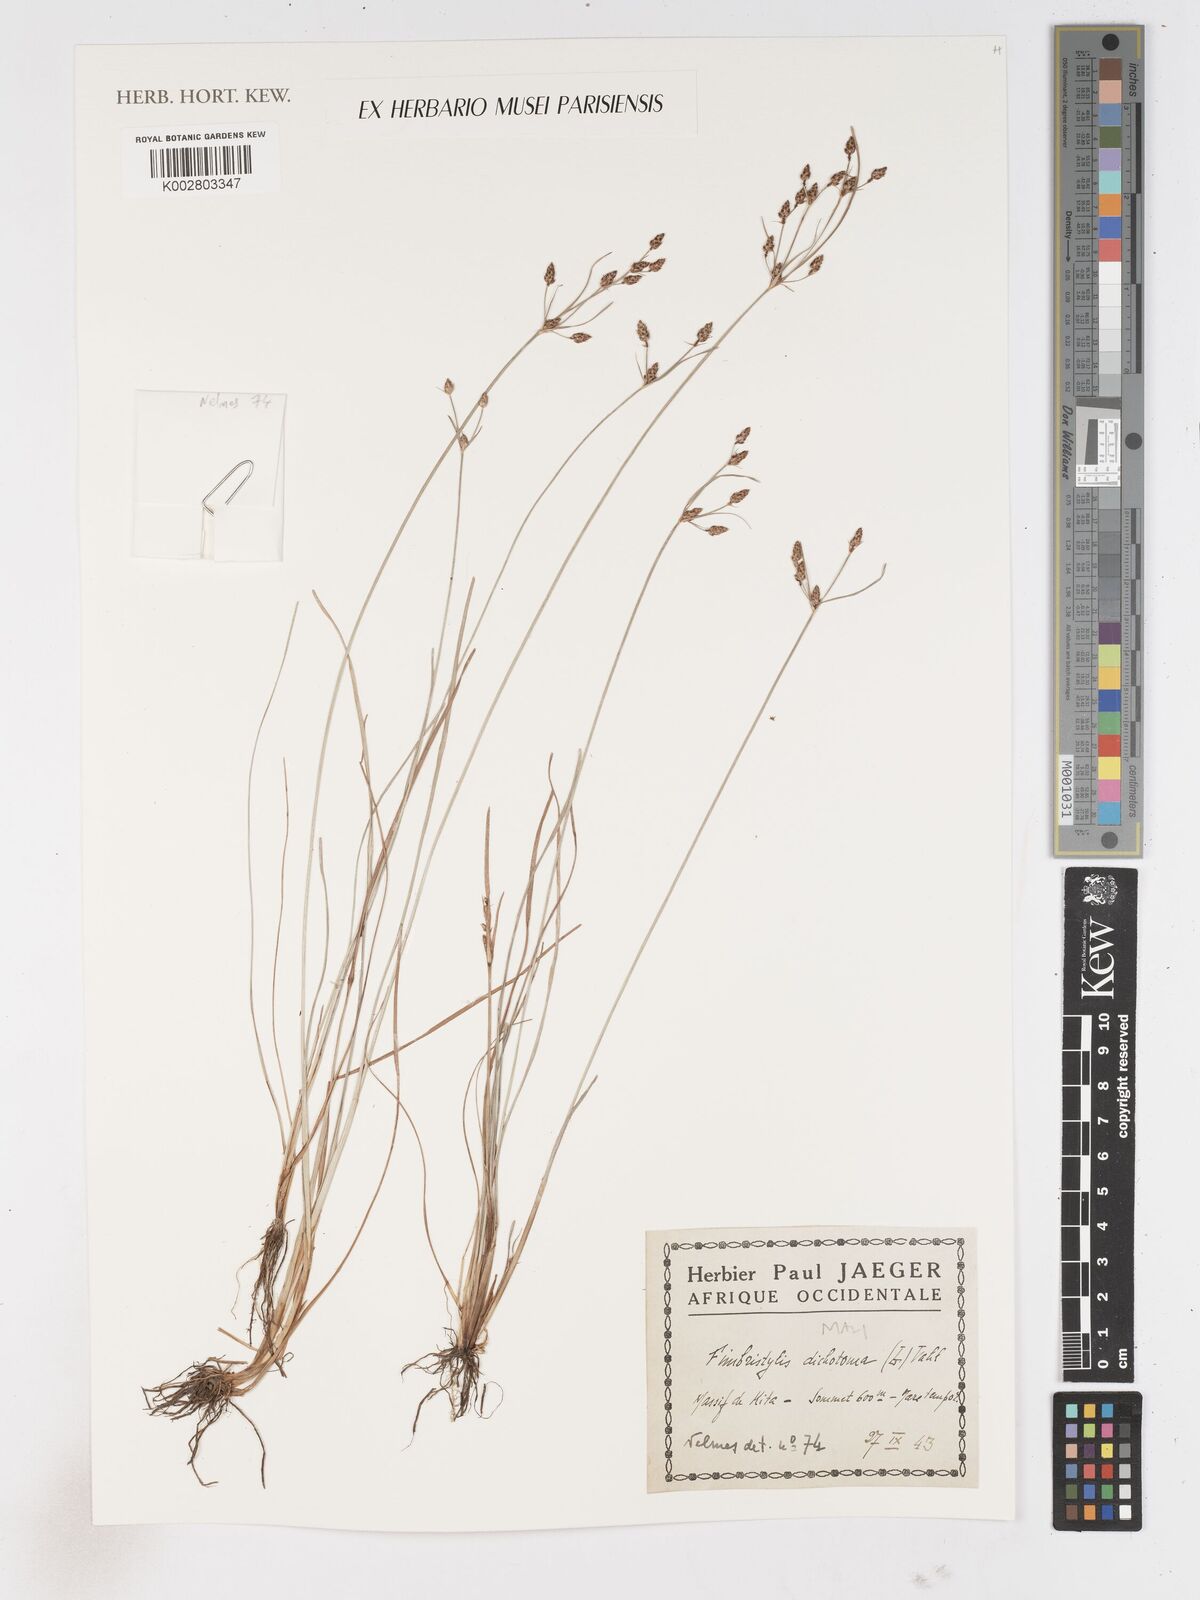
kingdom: Plantae
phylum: Tracheophyta
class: Liliopsida
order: Poales
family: Cyperaceae
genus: Fimbristylis
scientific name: Fimbristylis dichotoma
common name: Forked fimbry
